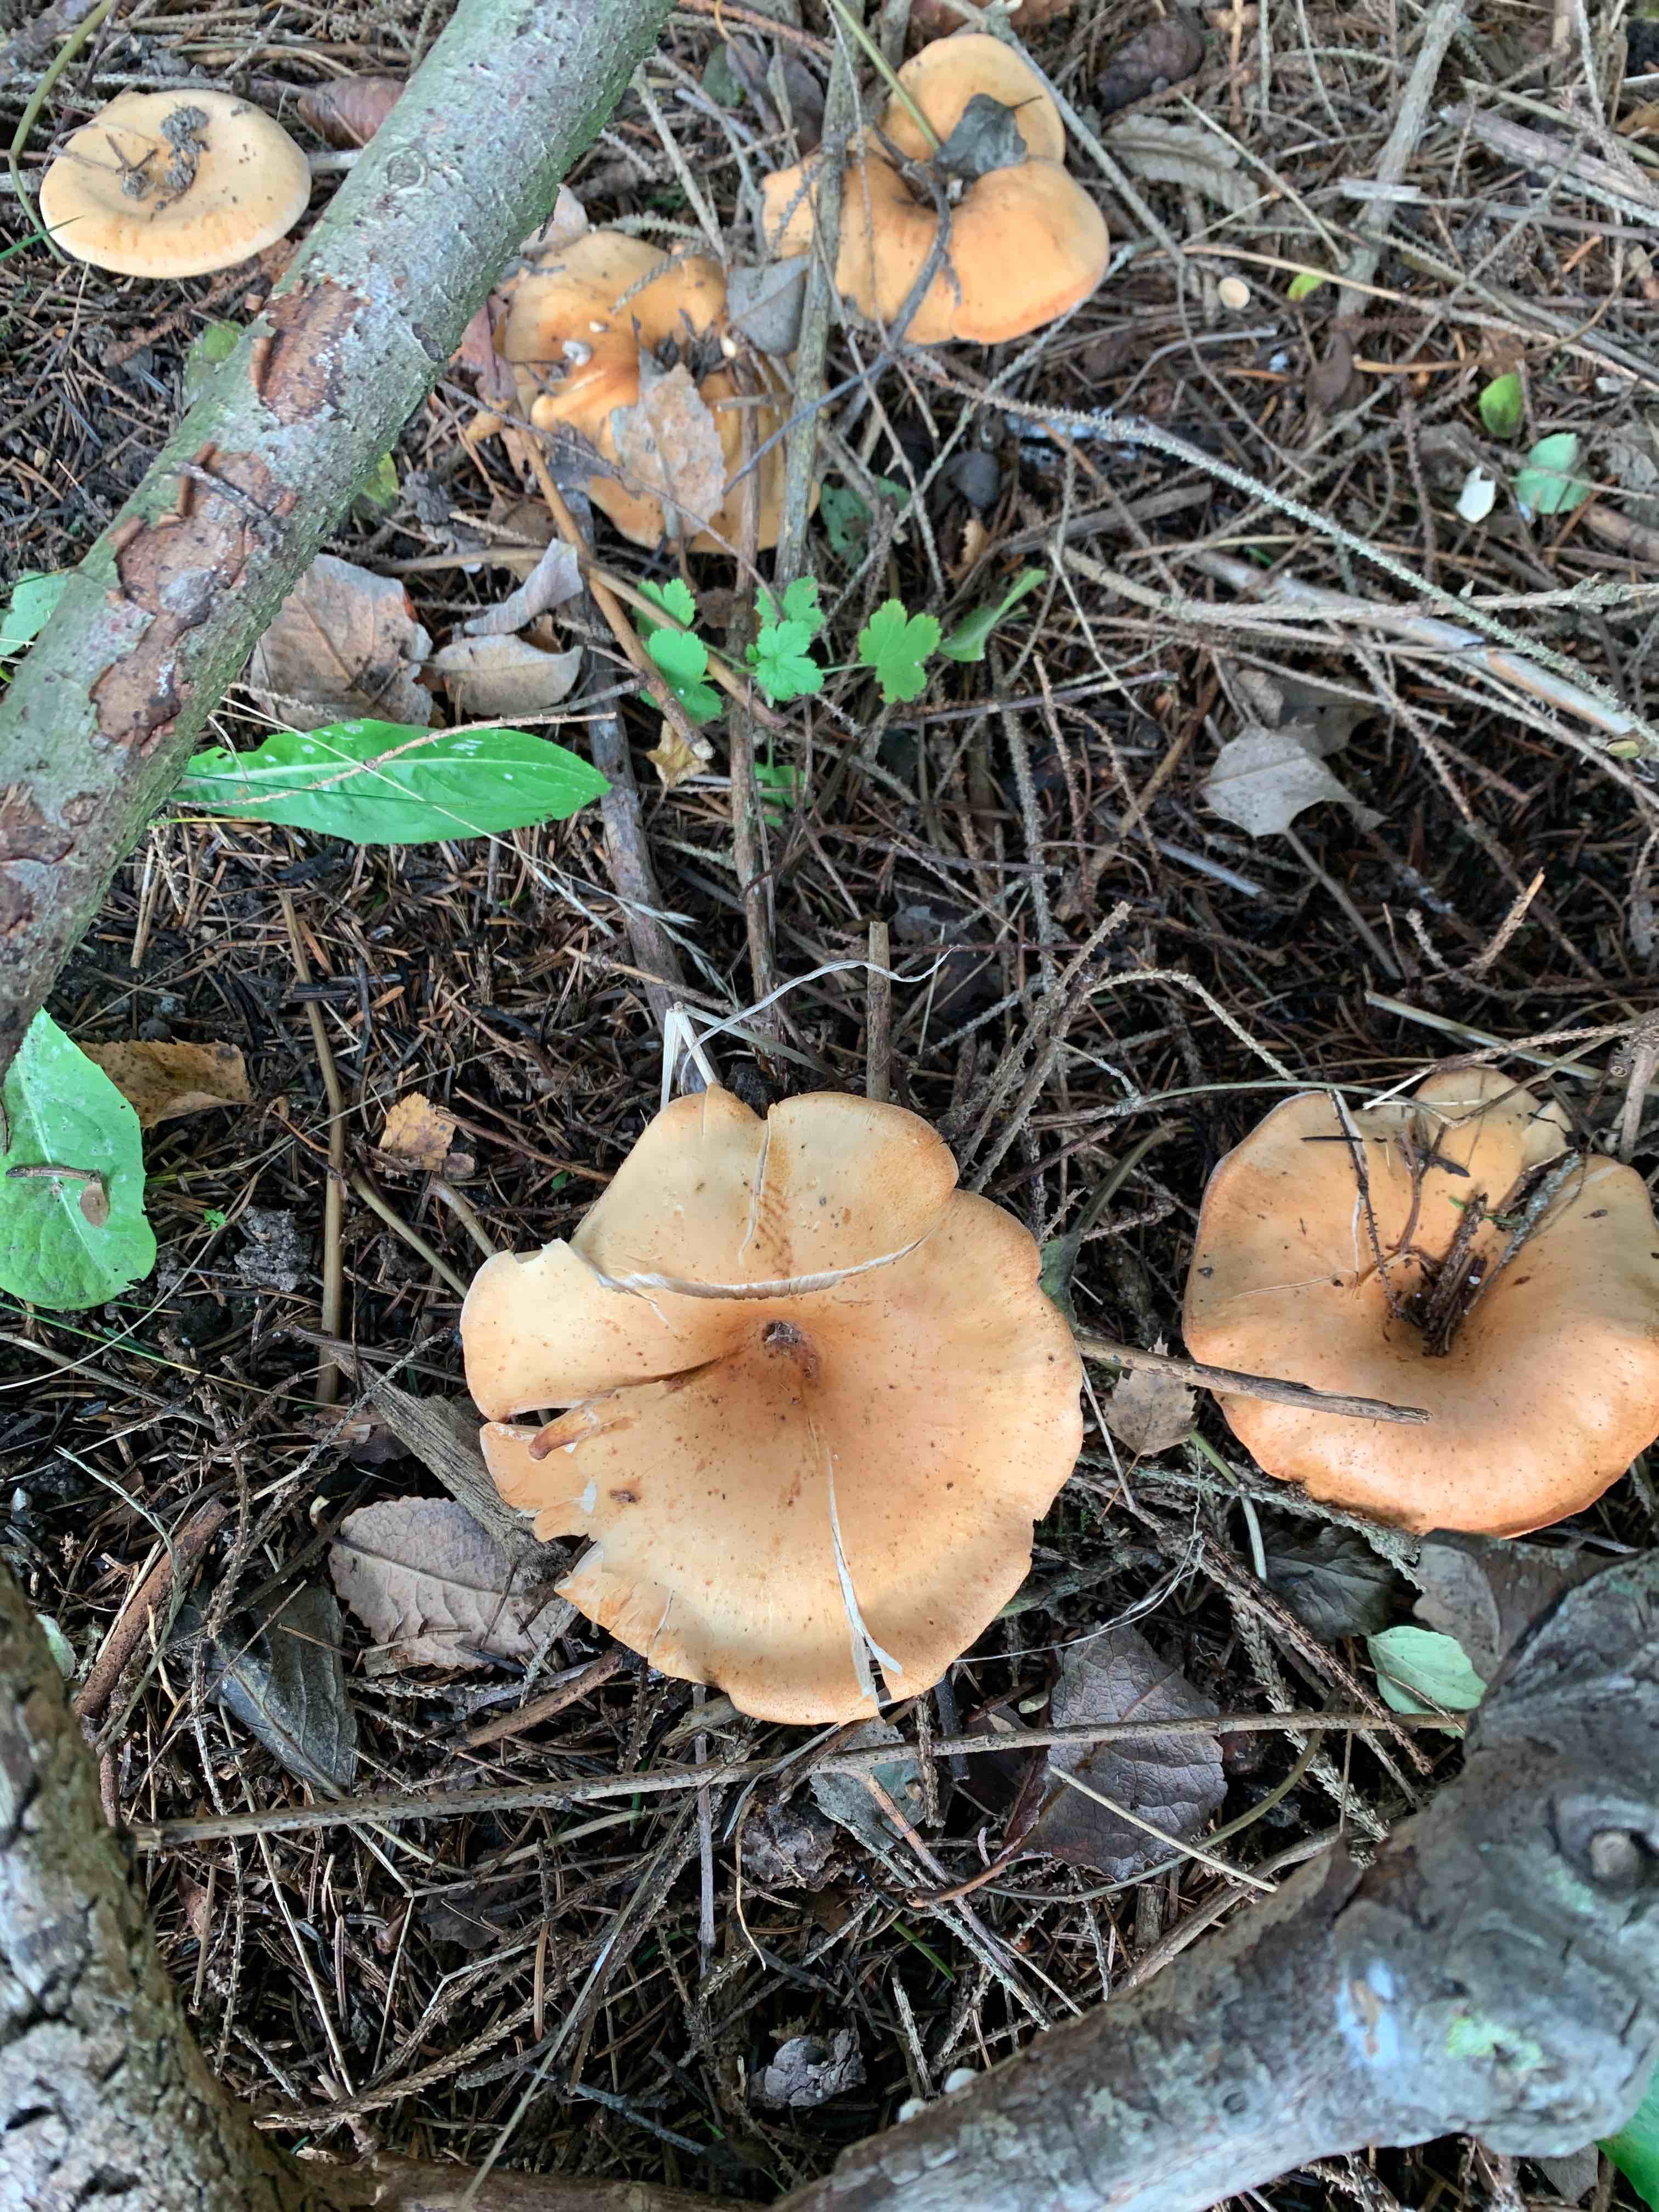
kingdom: Fungi
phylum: Basidiomycota
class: Agaricomycetes
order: Russulales
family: Russulaceae
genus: Lactarius
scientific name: Lactarius deterrimus
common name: gran-mælkehat
